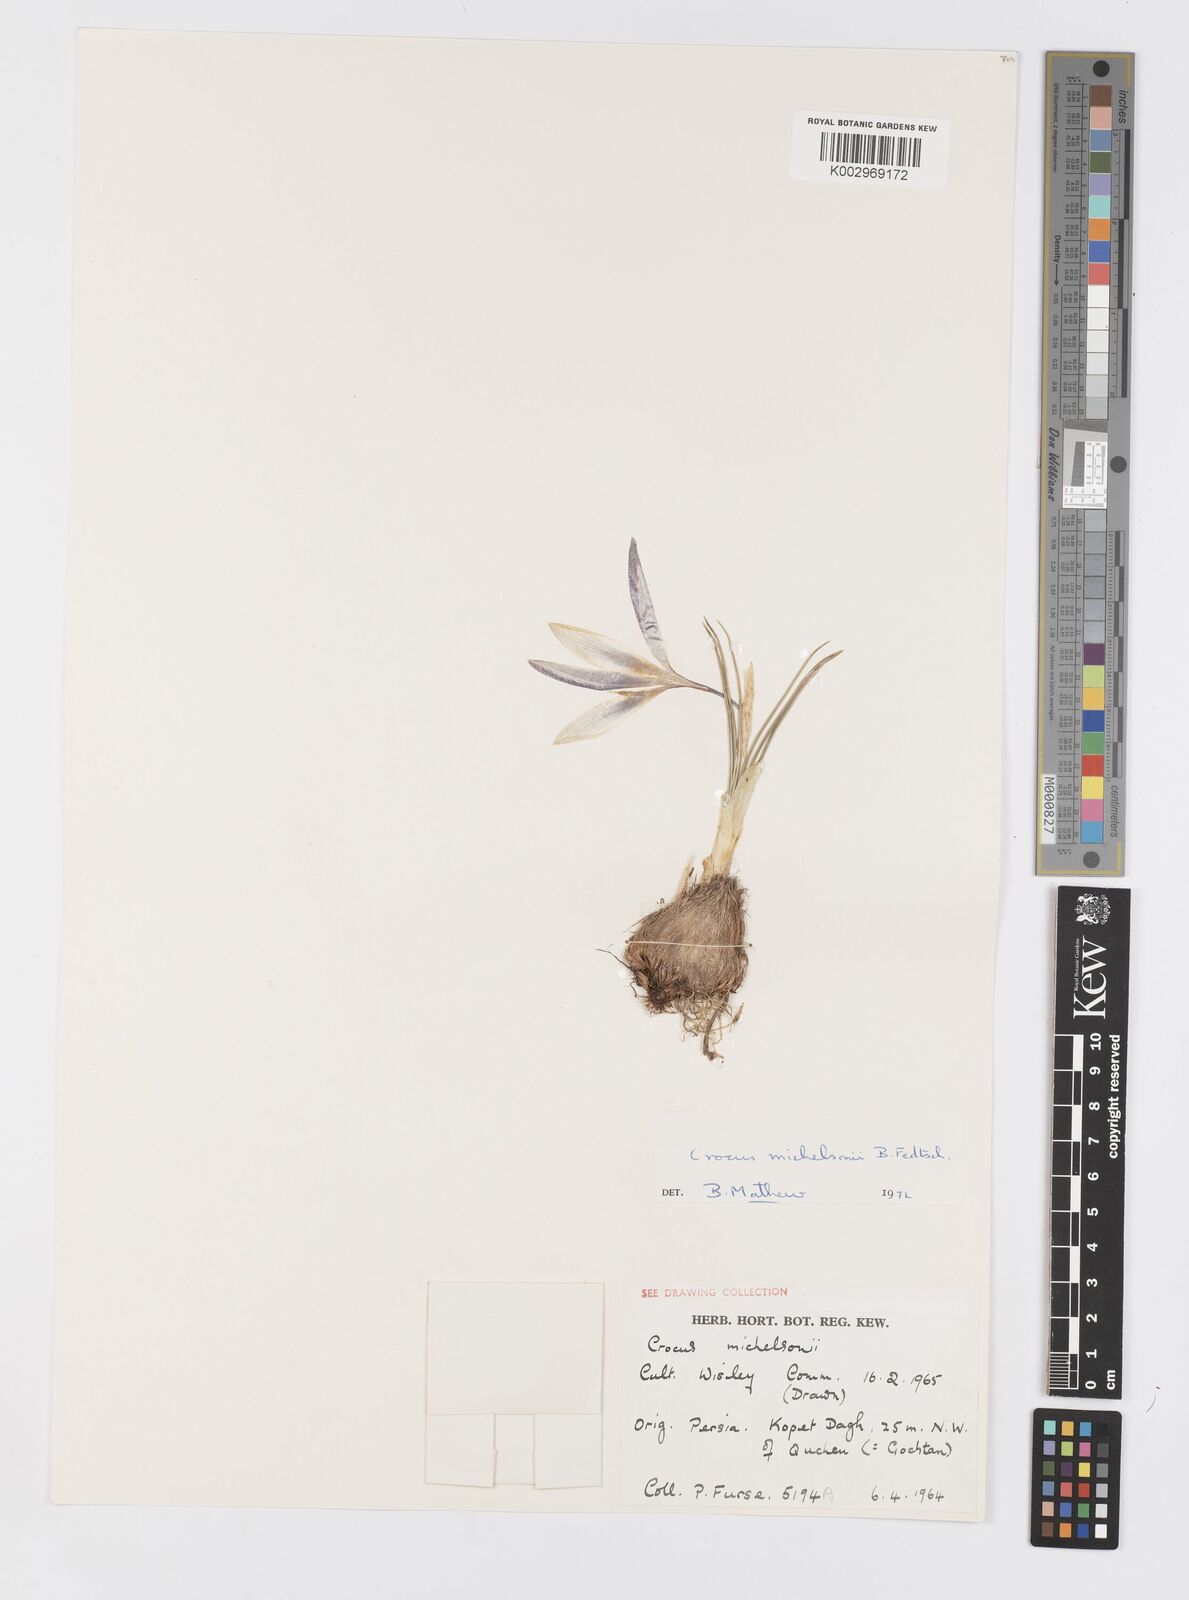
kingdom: Plantae
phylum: Tracheophyta
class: Liliopsida
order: Asparagales
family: Iridaceae
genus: Crocus
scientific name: Crocus michelsonii
